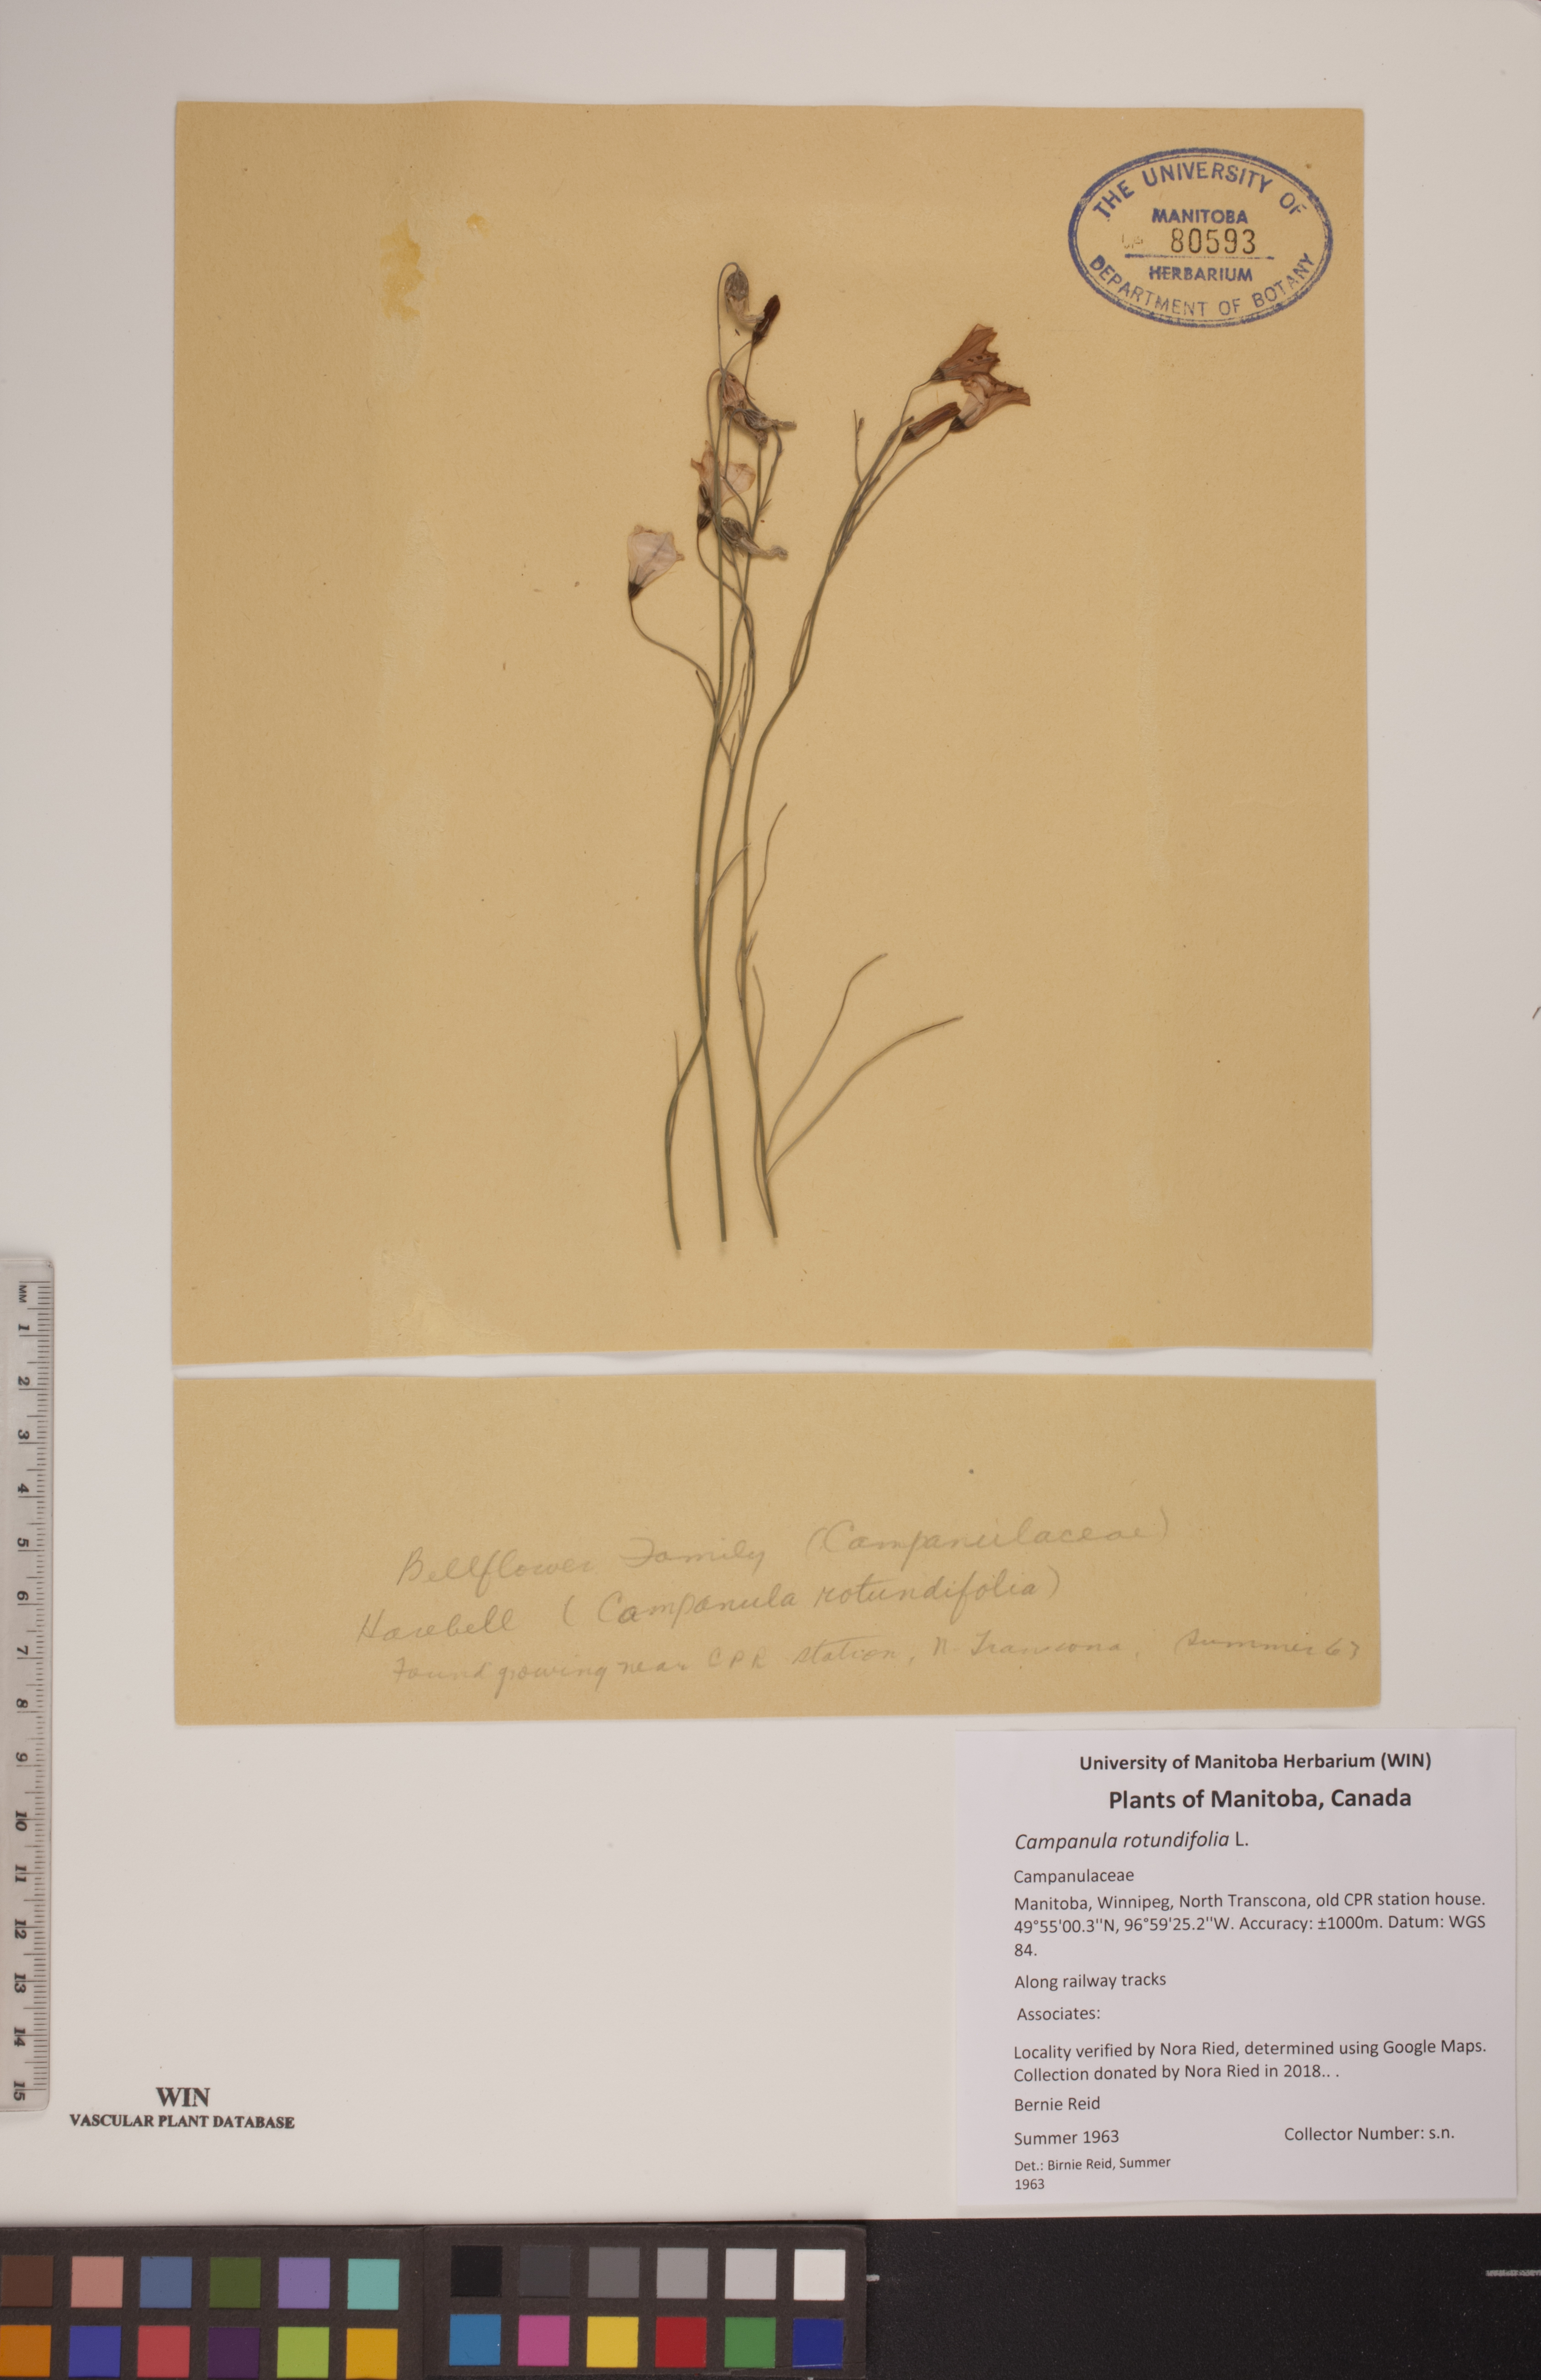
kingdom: Plantae
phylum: Tracheophyta
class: Magnoliopsida
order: Asterales
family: Campanulaceae
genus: Campanula
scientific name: Campanula rotundifolia
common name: Harebell
